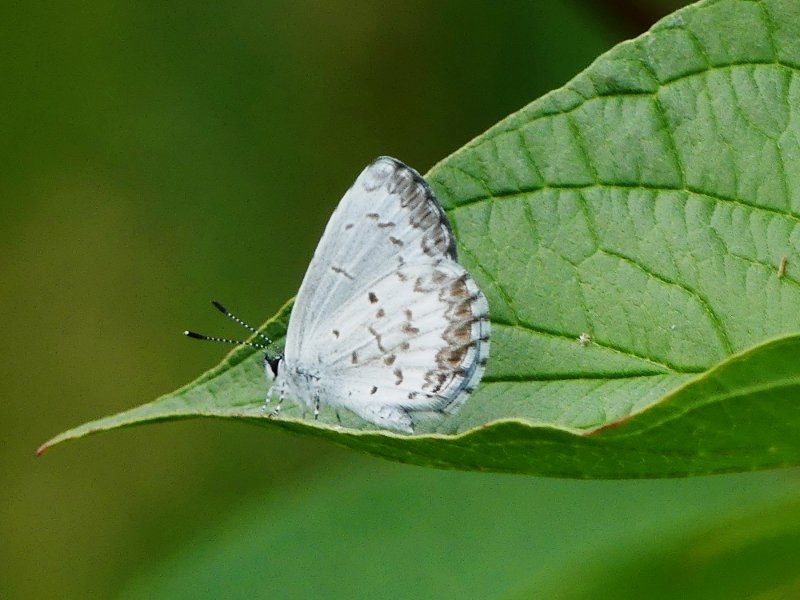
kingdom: Animalia
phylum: Arthropoda
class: Insecta
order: Lepidoptera
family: Lycaenidae
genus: Celastrina
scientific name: Celastrina lucia
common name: Northern Spring Azure
